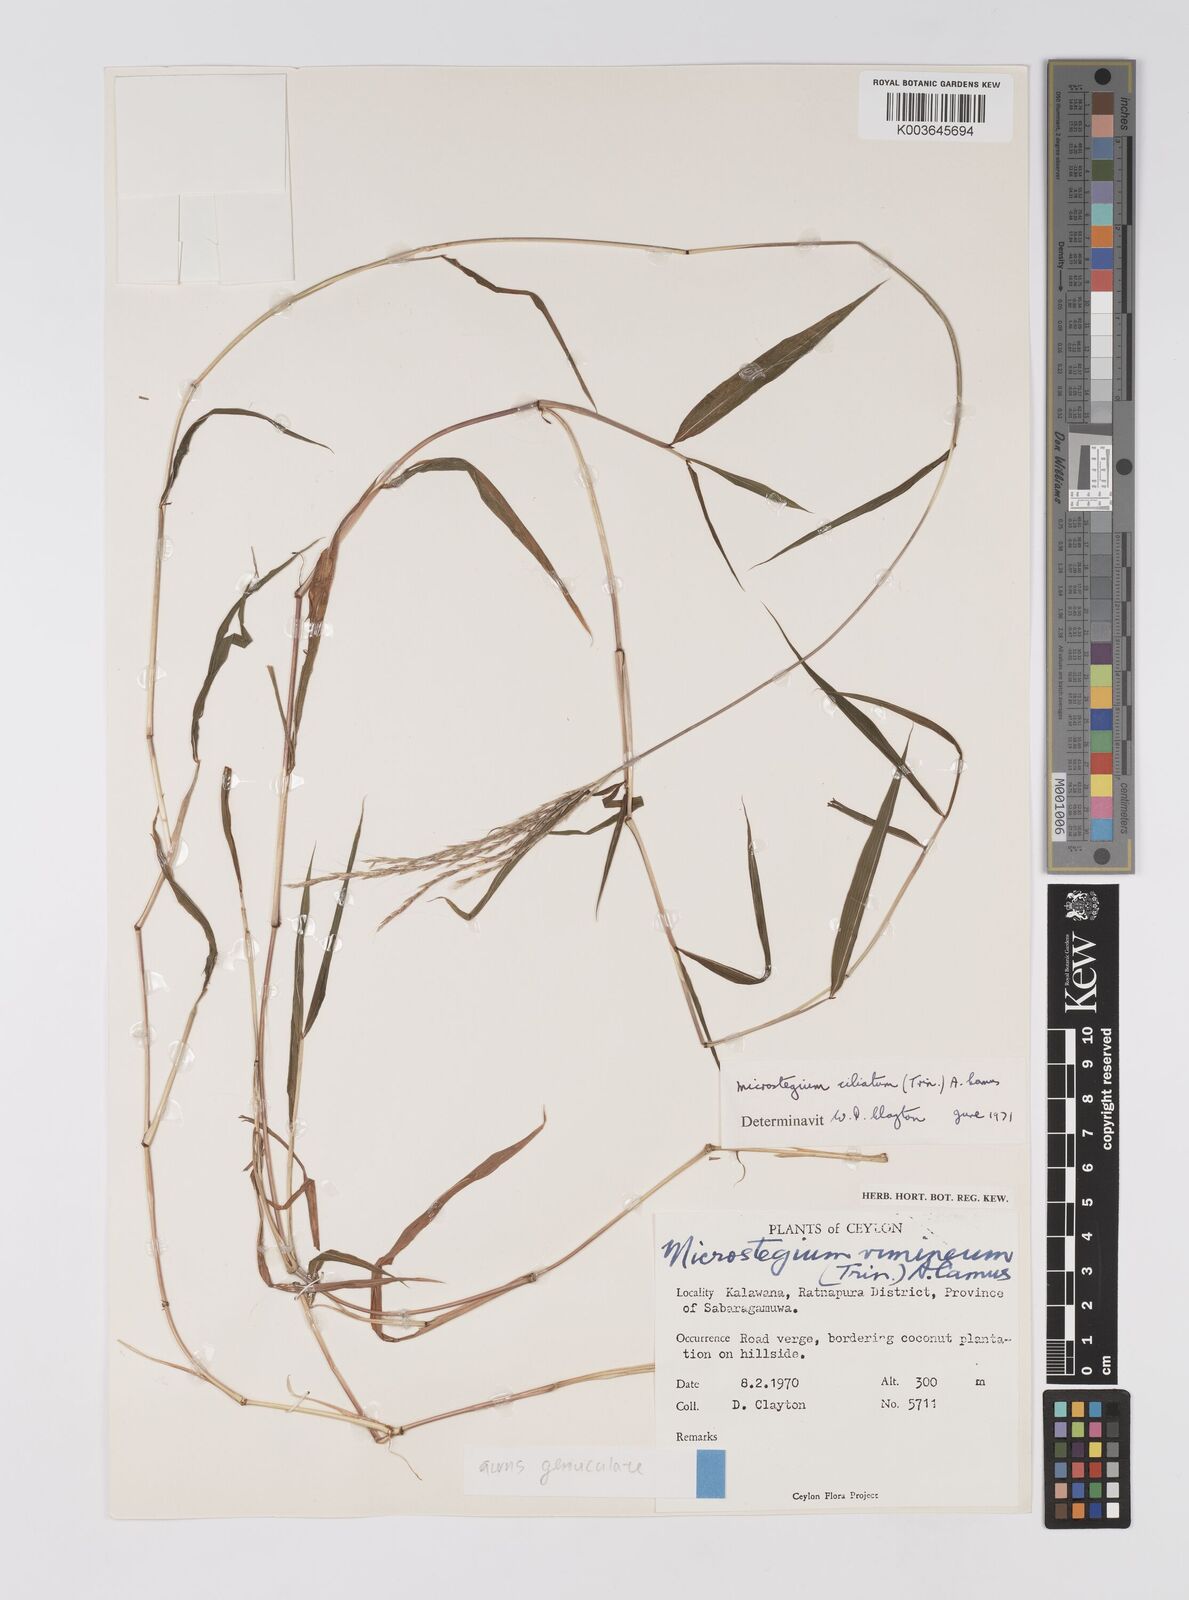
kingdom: Plantae
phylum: Tracheophyta
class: Liliopsida
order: Poales
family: Poaceae
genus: Microstegium
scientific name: Microstegium fasciculatum
